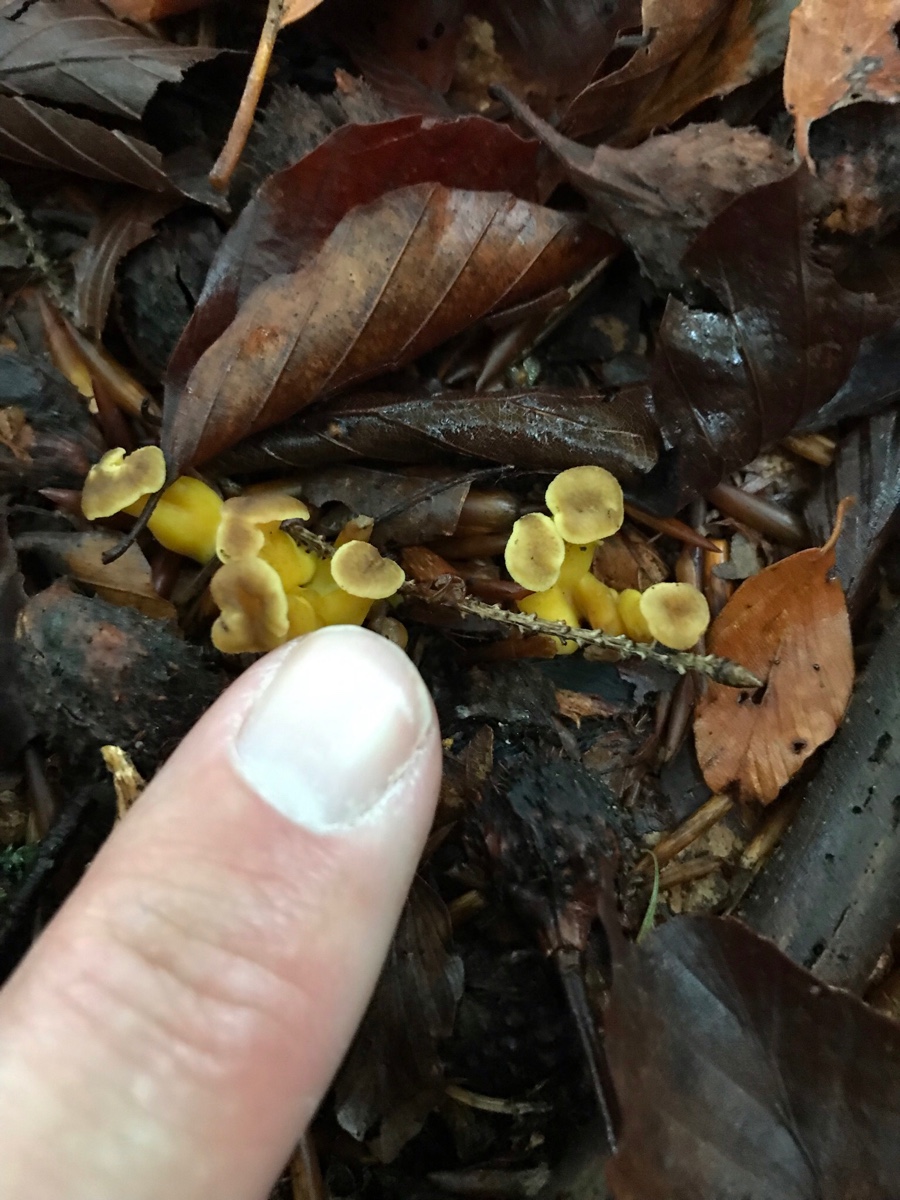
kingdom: Fungi
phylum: Basidiomycota
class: Agaricomycetes
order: Cantharellales
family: Hydnaceae
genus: Craterellus
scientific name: Craterellus tubaeformis
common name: tragt-kantarel
